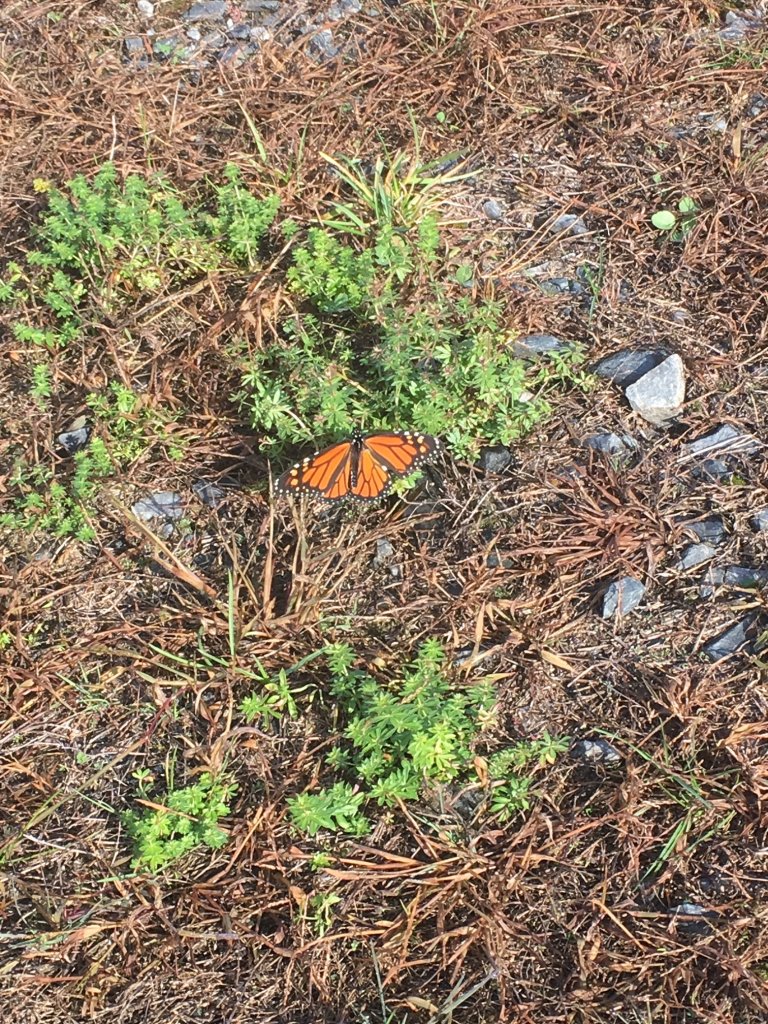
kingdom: Animalia
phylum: Arthropoda
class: Insecta
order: Lepidoptera
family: Nymphalidae
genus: Danaus
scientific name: Danaus plexippus
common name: Monarch
